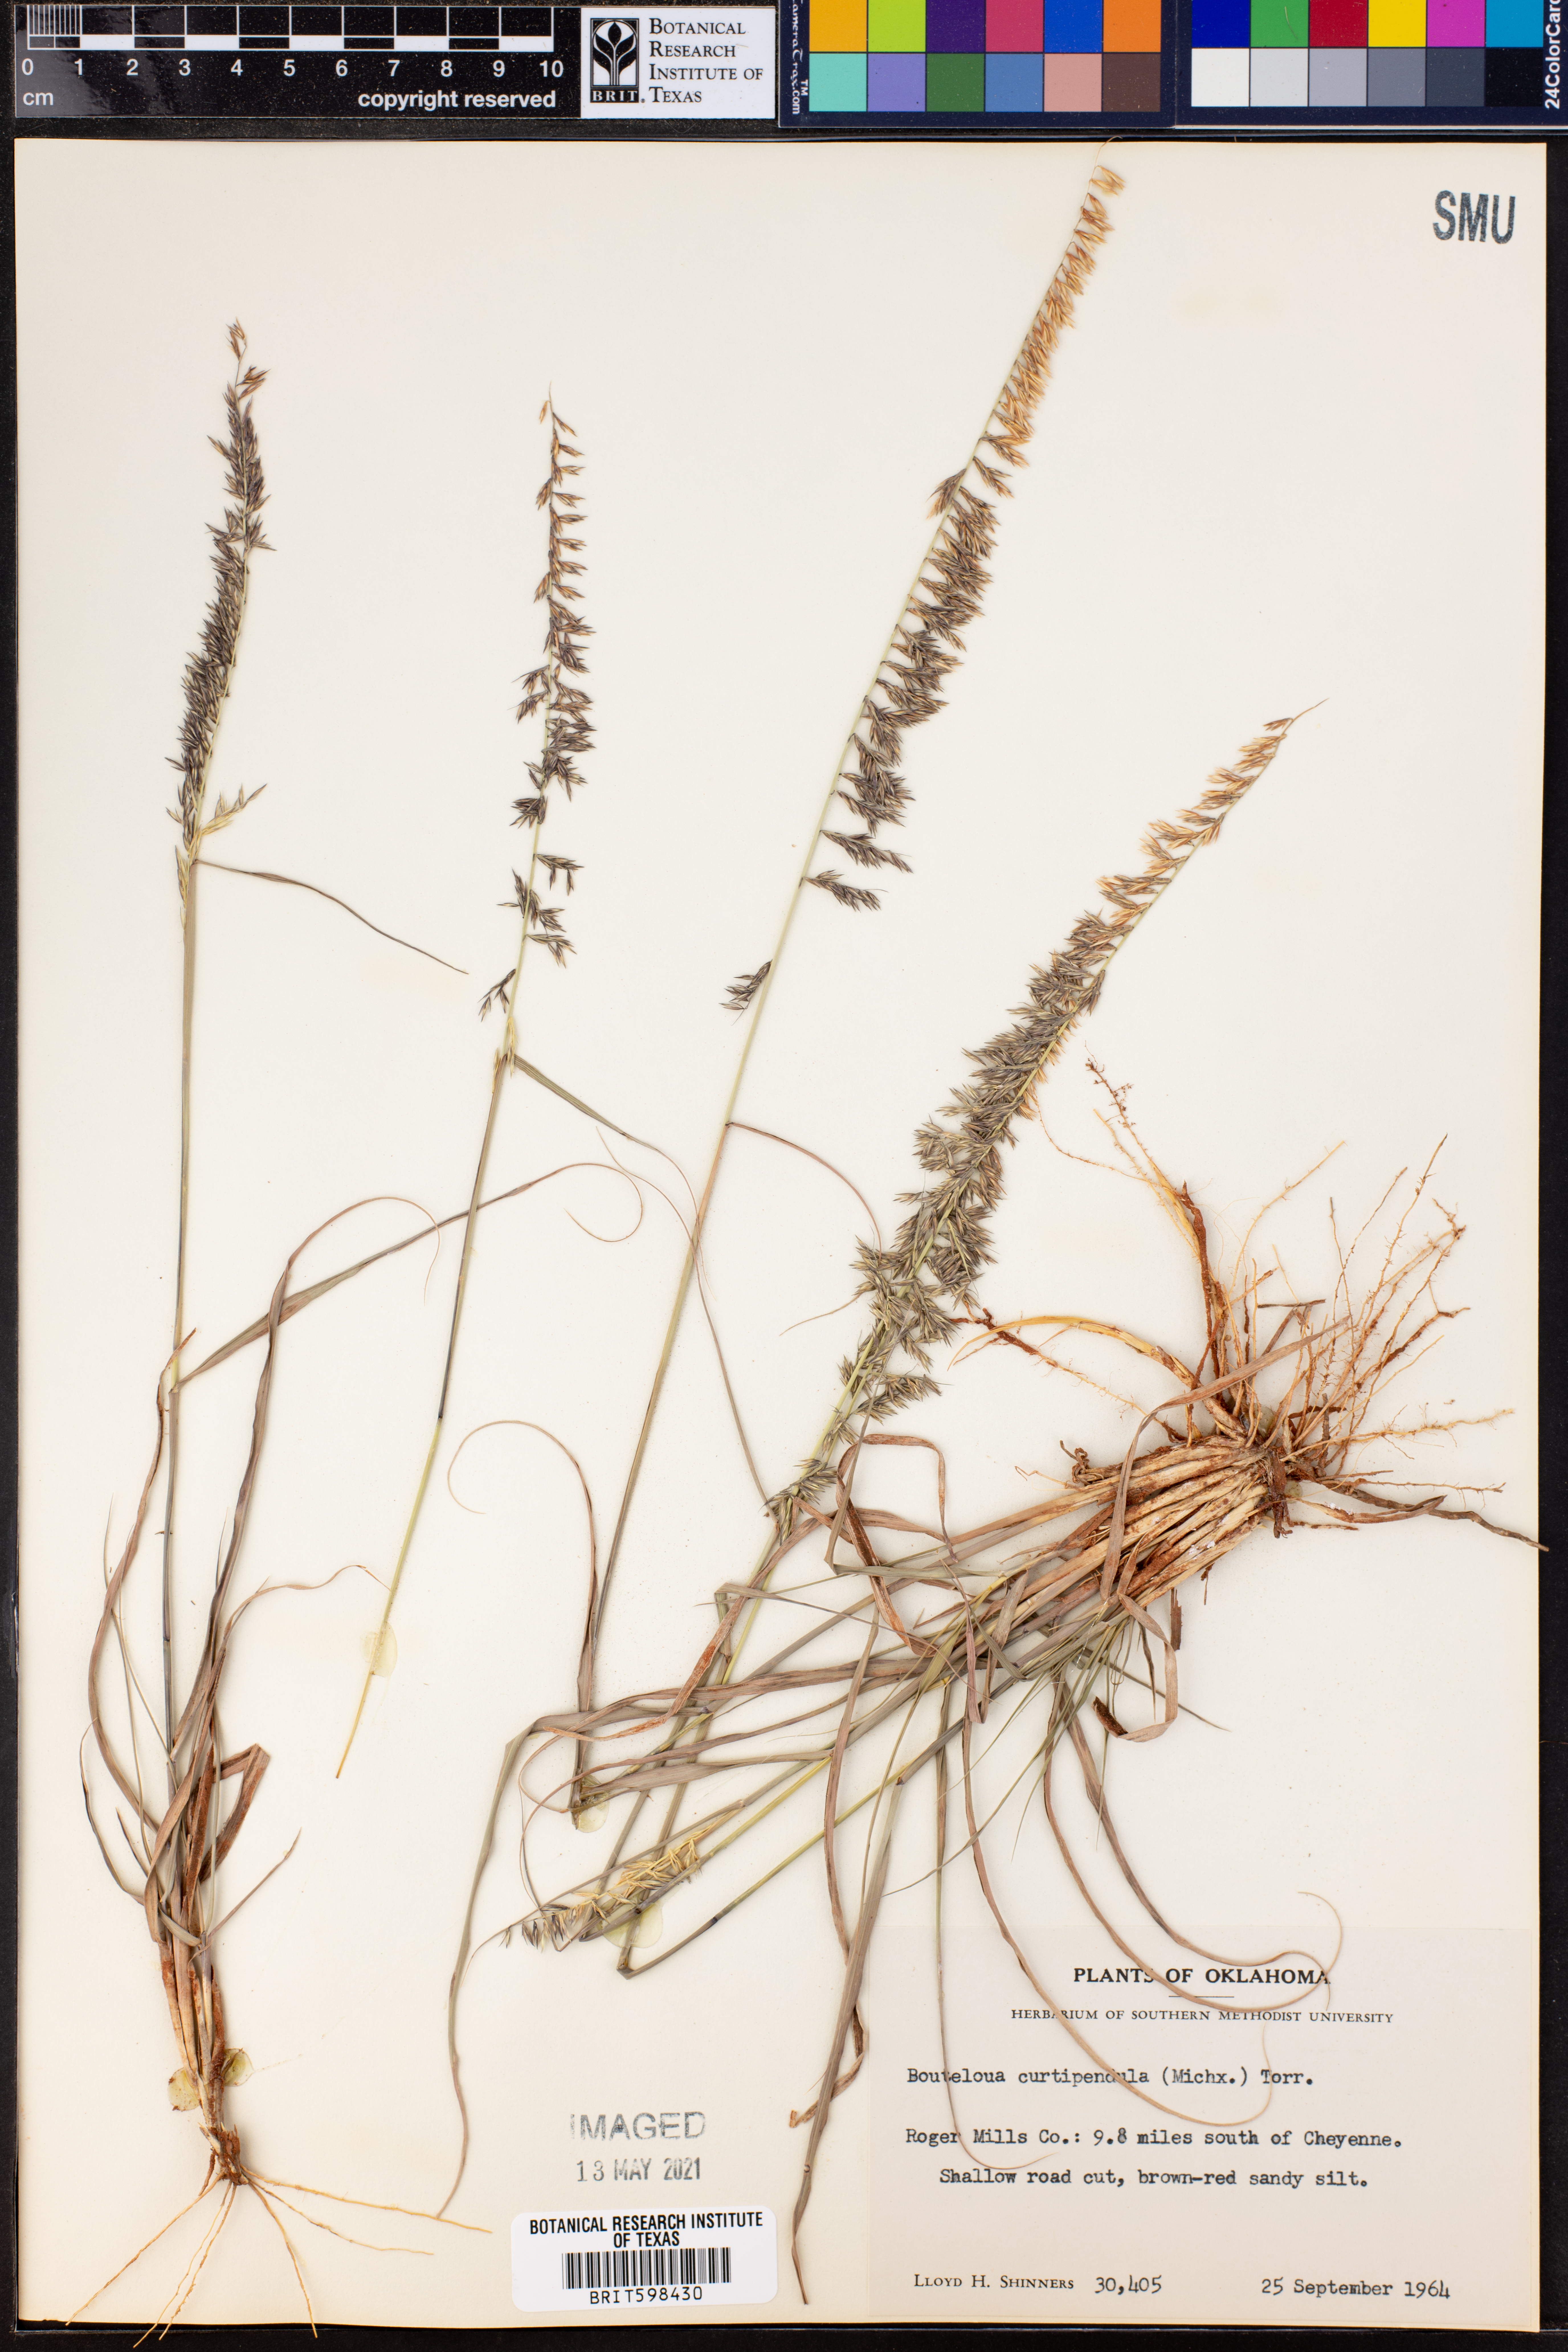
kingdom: Plantae
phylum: Tracheophyta
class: Liliopsida
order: Poales
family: Poaceae
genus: Bouteloua
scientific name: Bouteloua curtipendula
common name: Side-oats grama
